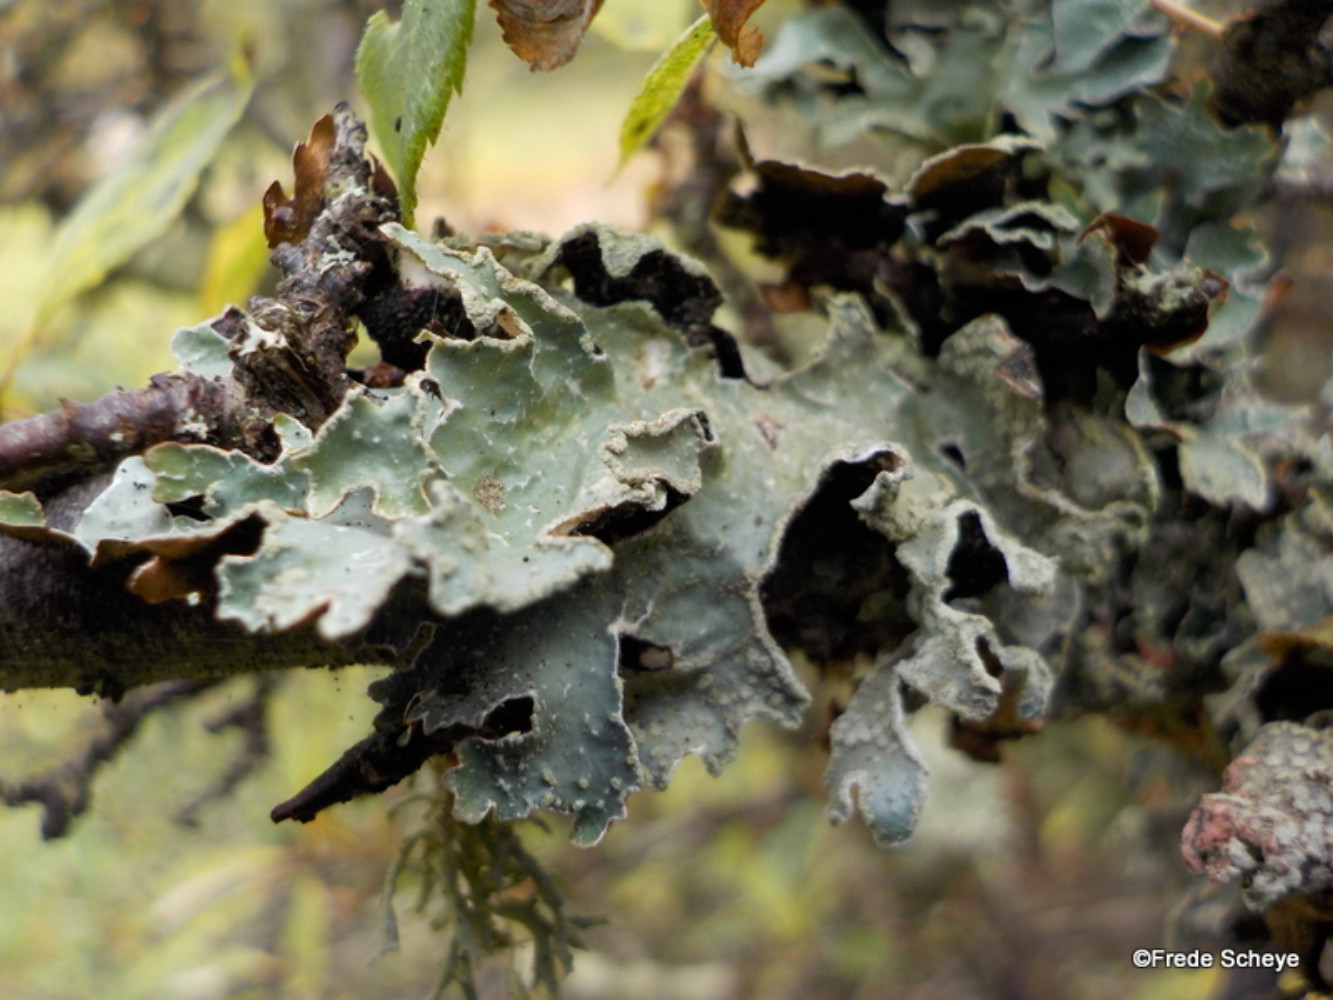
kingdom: Fungi
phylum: Ascomycota
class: Lecanoromycetes
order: Lecanorales
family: Parmeliaceae
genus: Parmelia
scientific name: Parmelia sulcata
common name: rynket skållav
